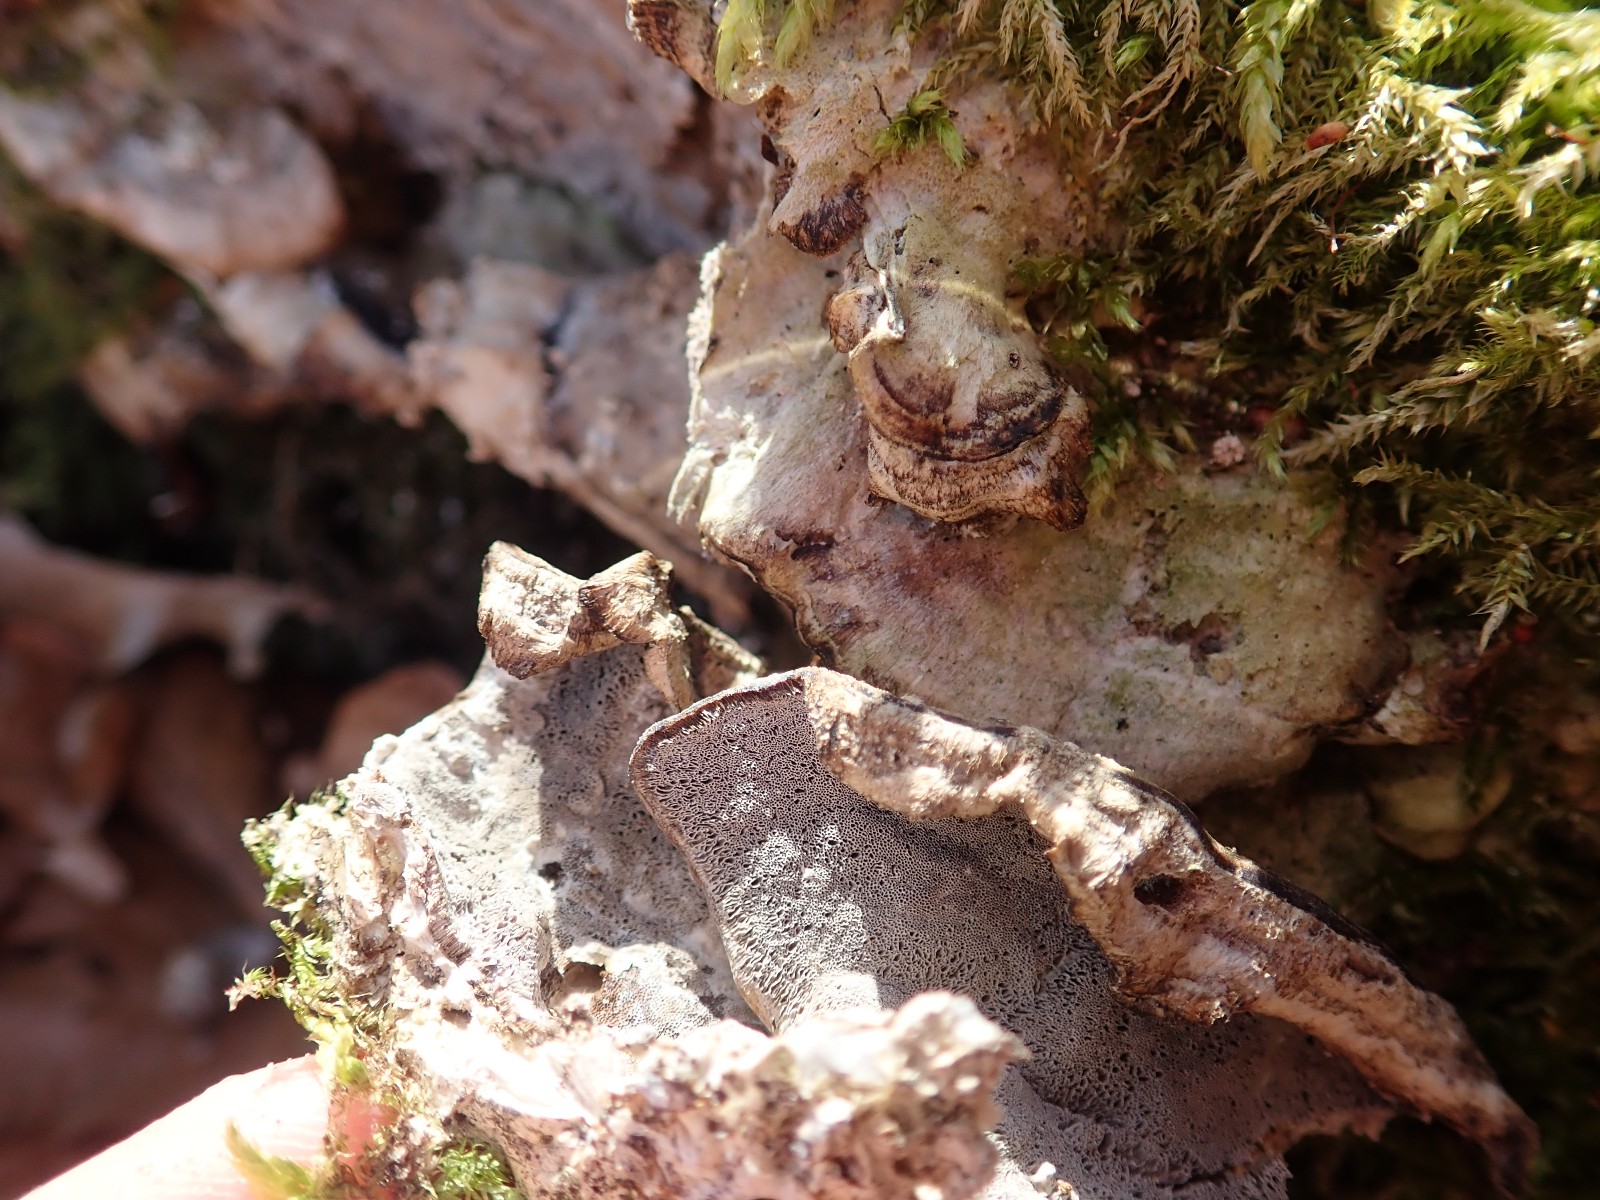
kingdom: Fungi
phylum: Basidiomycota
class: Agaricomycetes
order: Polyporales
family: Phanerochaetaceae
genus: Bjerkandera
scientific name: Bjerkandera adusta
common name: sveden sodporesvamp
